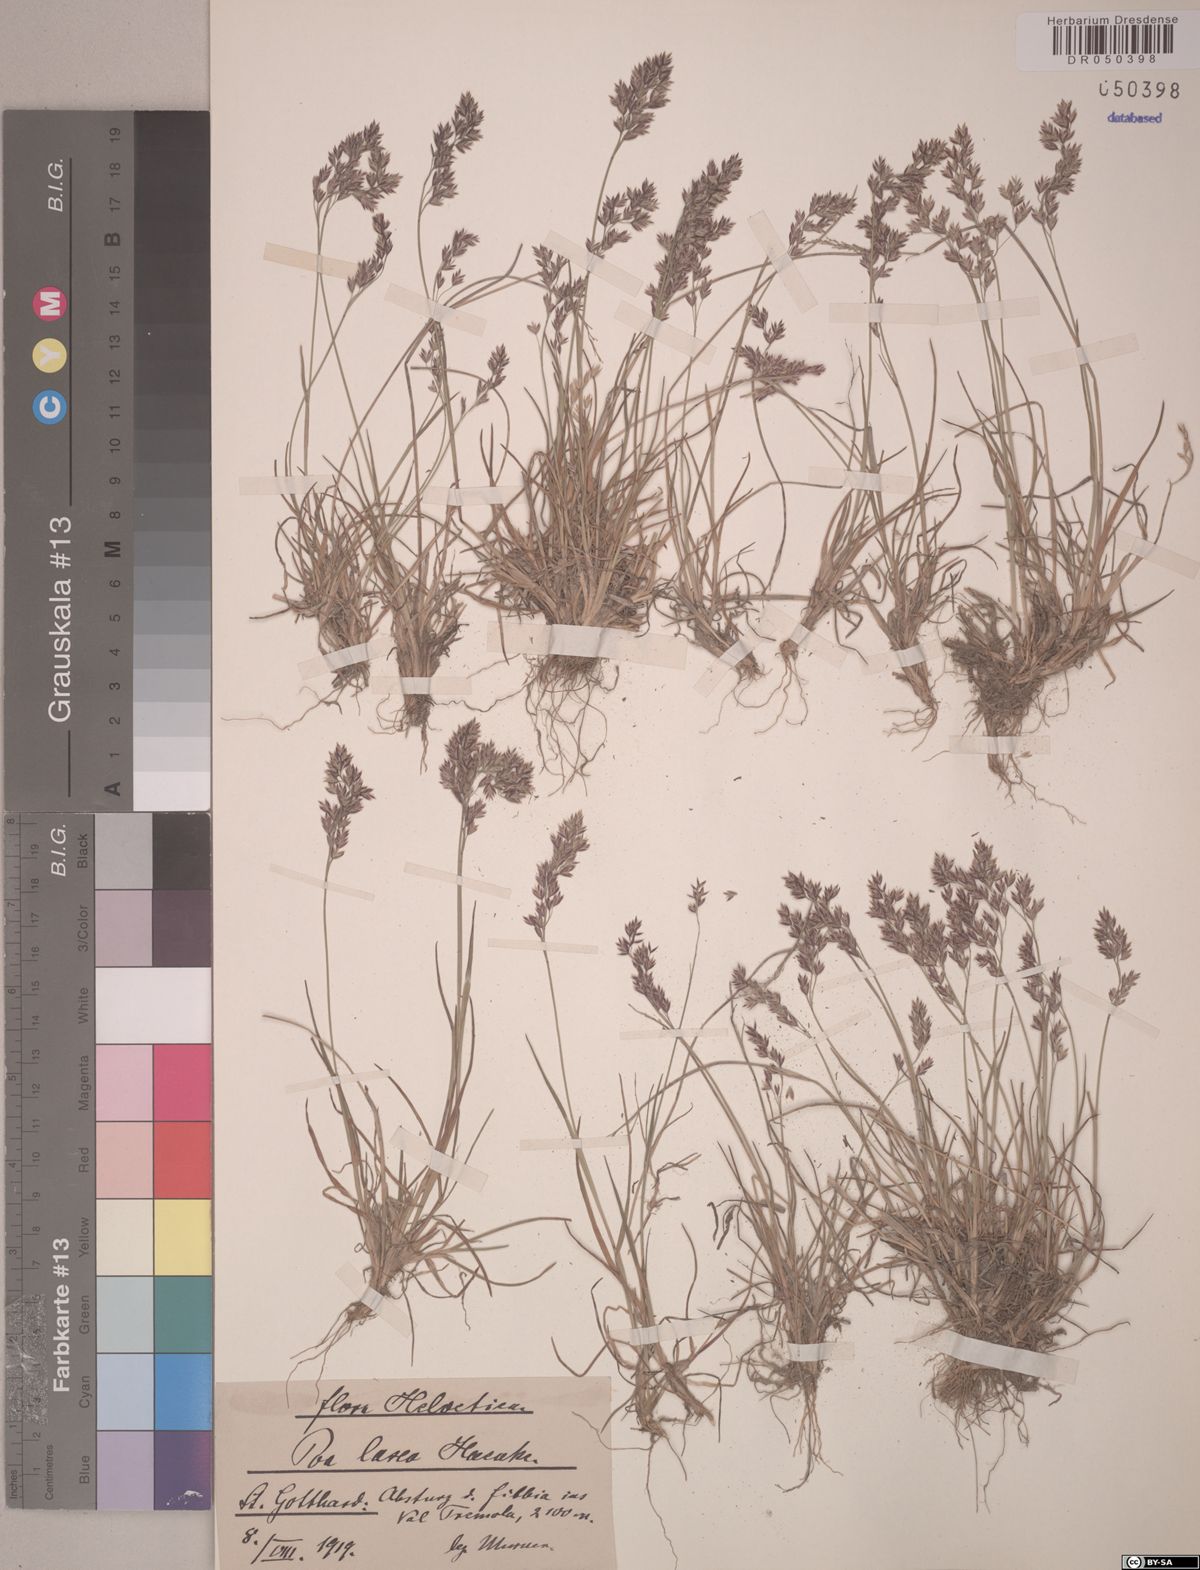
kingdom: Plantae
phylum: Tracheophyta
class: Liliopsida
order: Poales
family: Poaceae
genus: Poa
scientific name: Poa laxa
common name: Lax bluegrass
